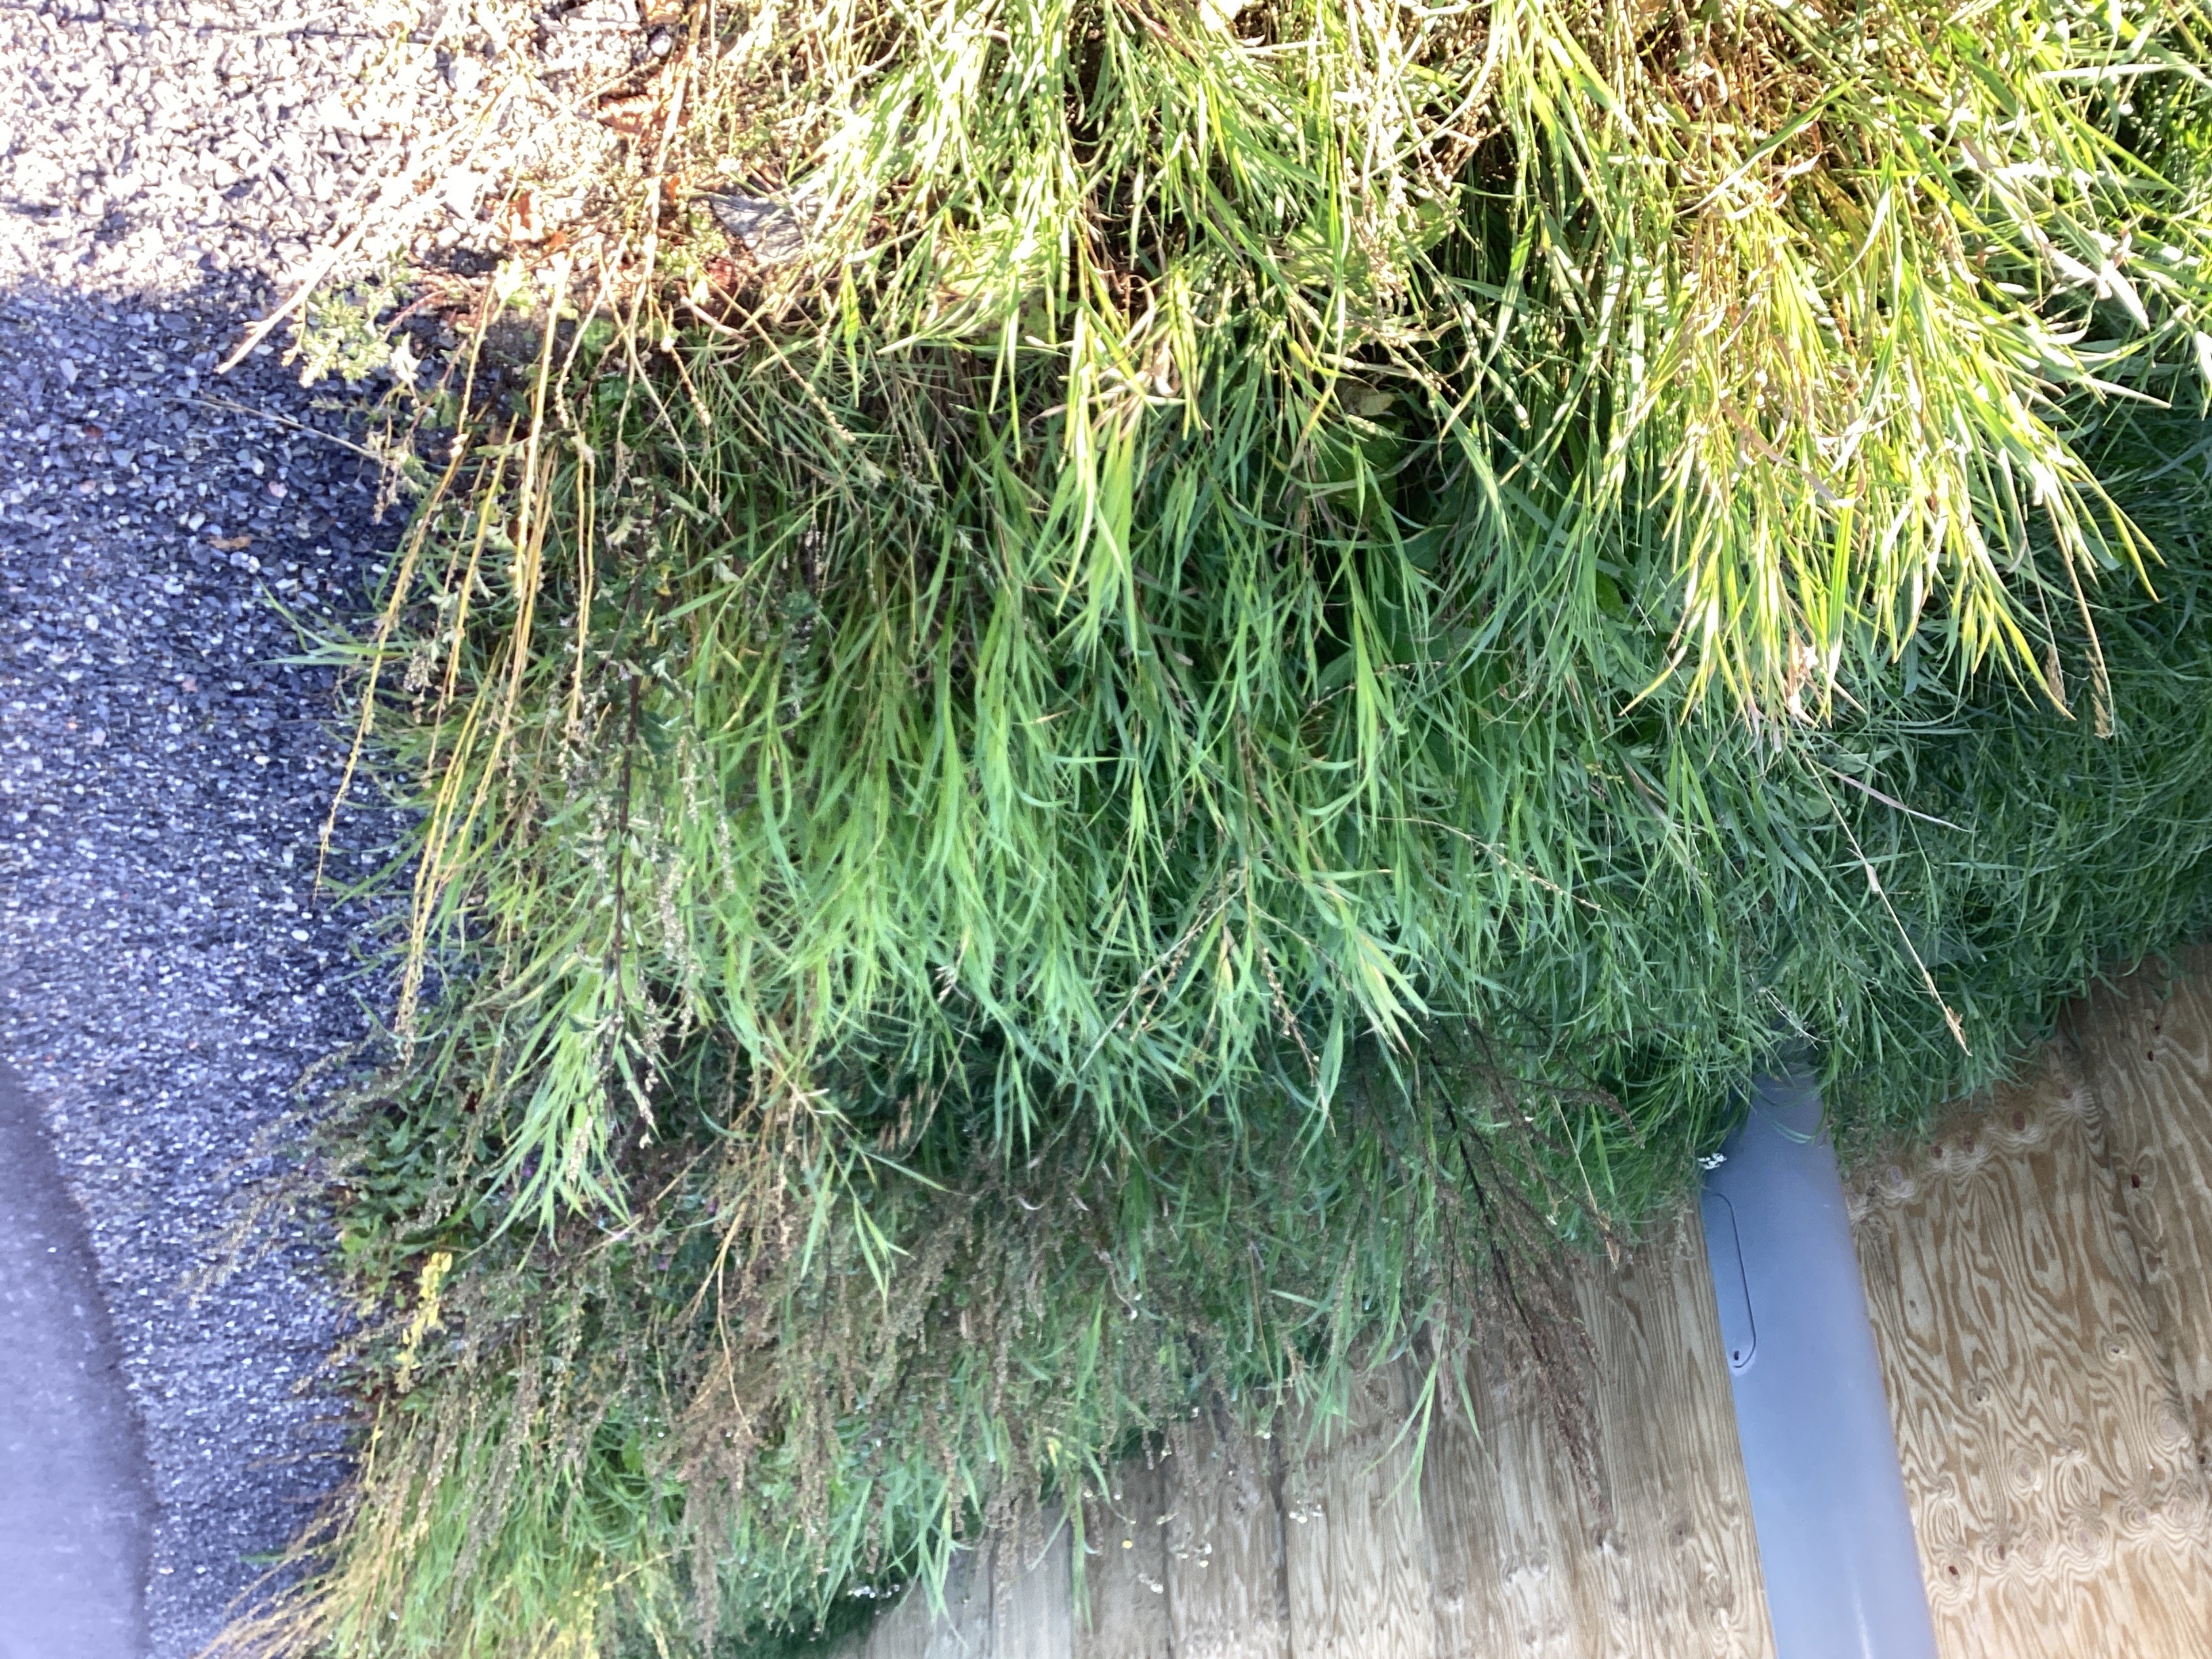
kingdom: Plantae
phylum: Tracheophyta
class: Liliopsida
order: Poales
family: Poaceae
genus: Bromus
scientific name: Bromus inermis
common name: bladfaks
